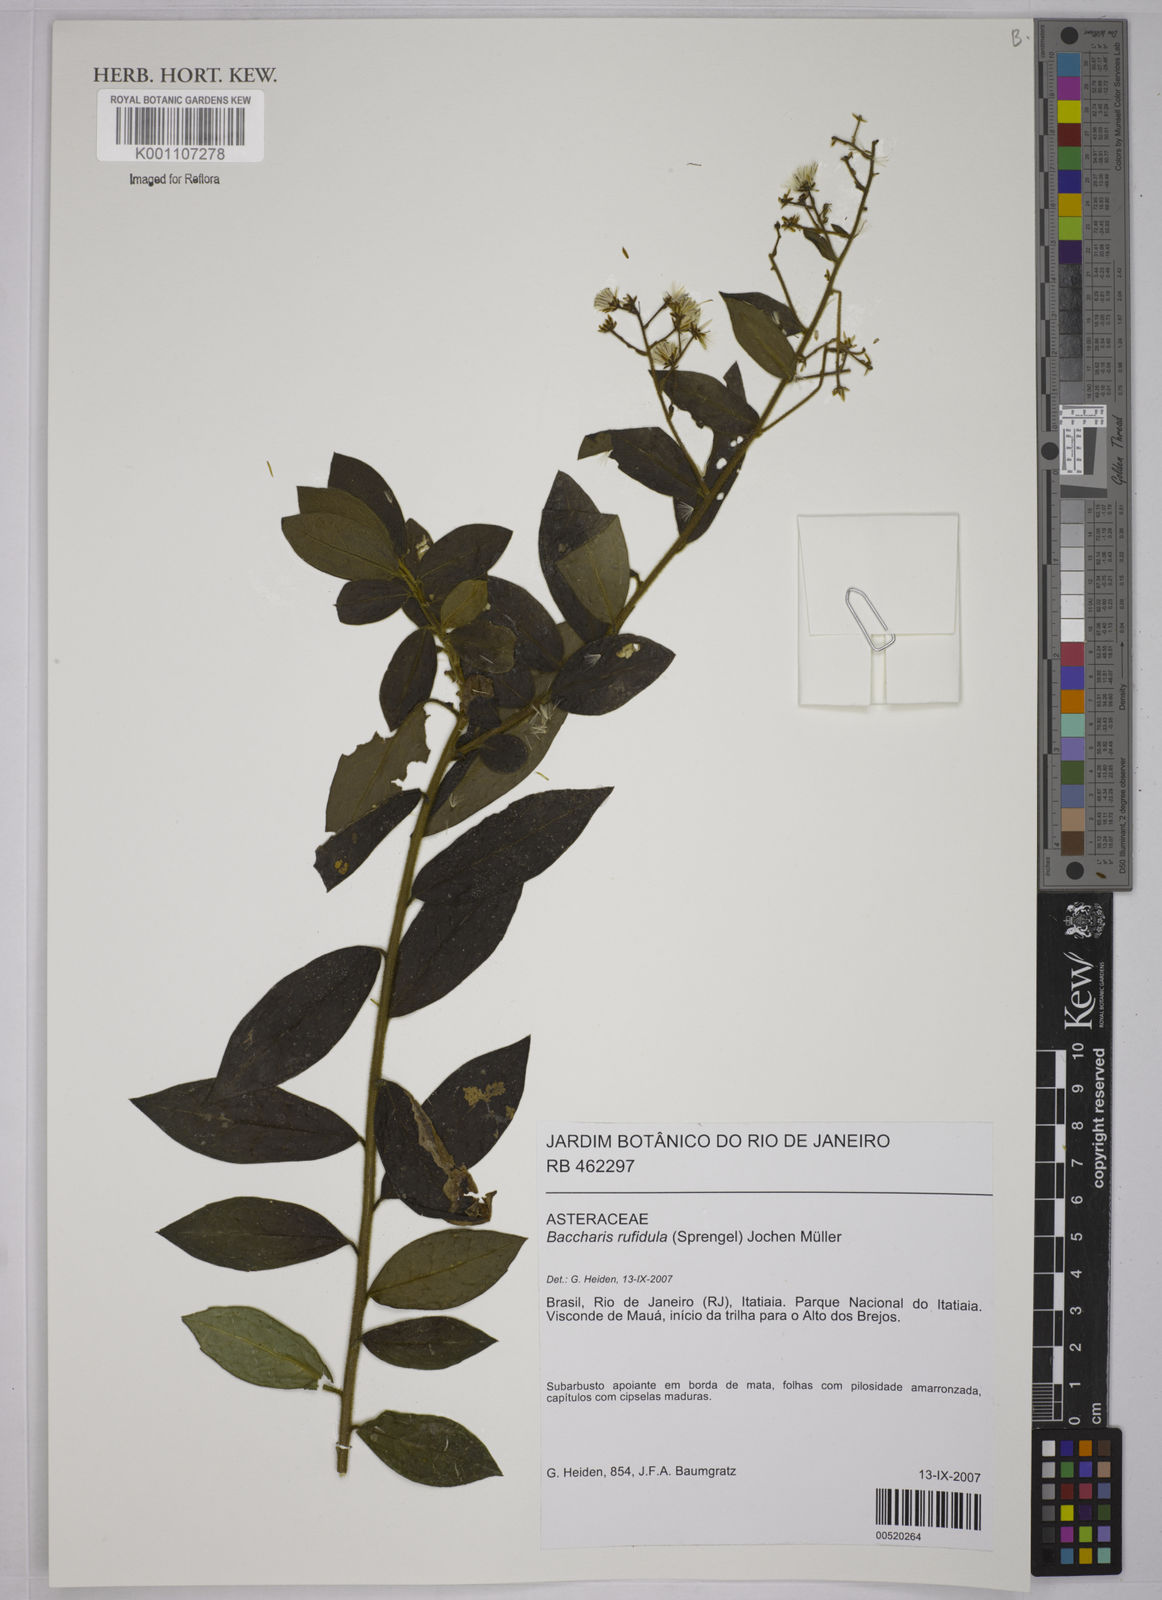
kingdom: Plantae
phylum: Tracheophyta
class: Magnoliopsida
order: Asterales
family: Asteraceae
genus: Baccharis
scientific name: Baccharis
